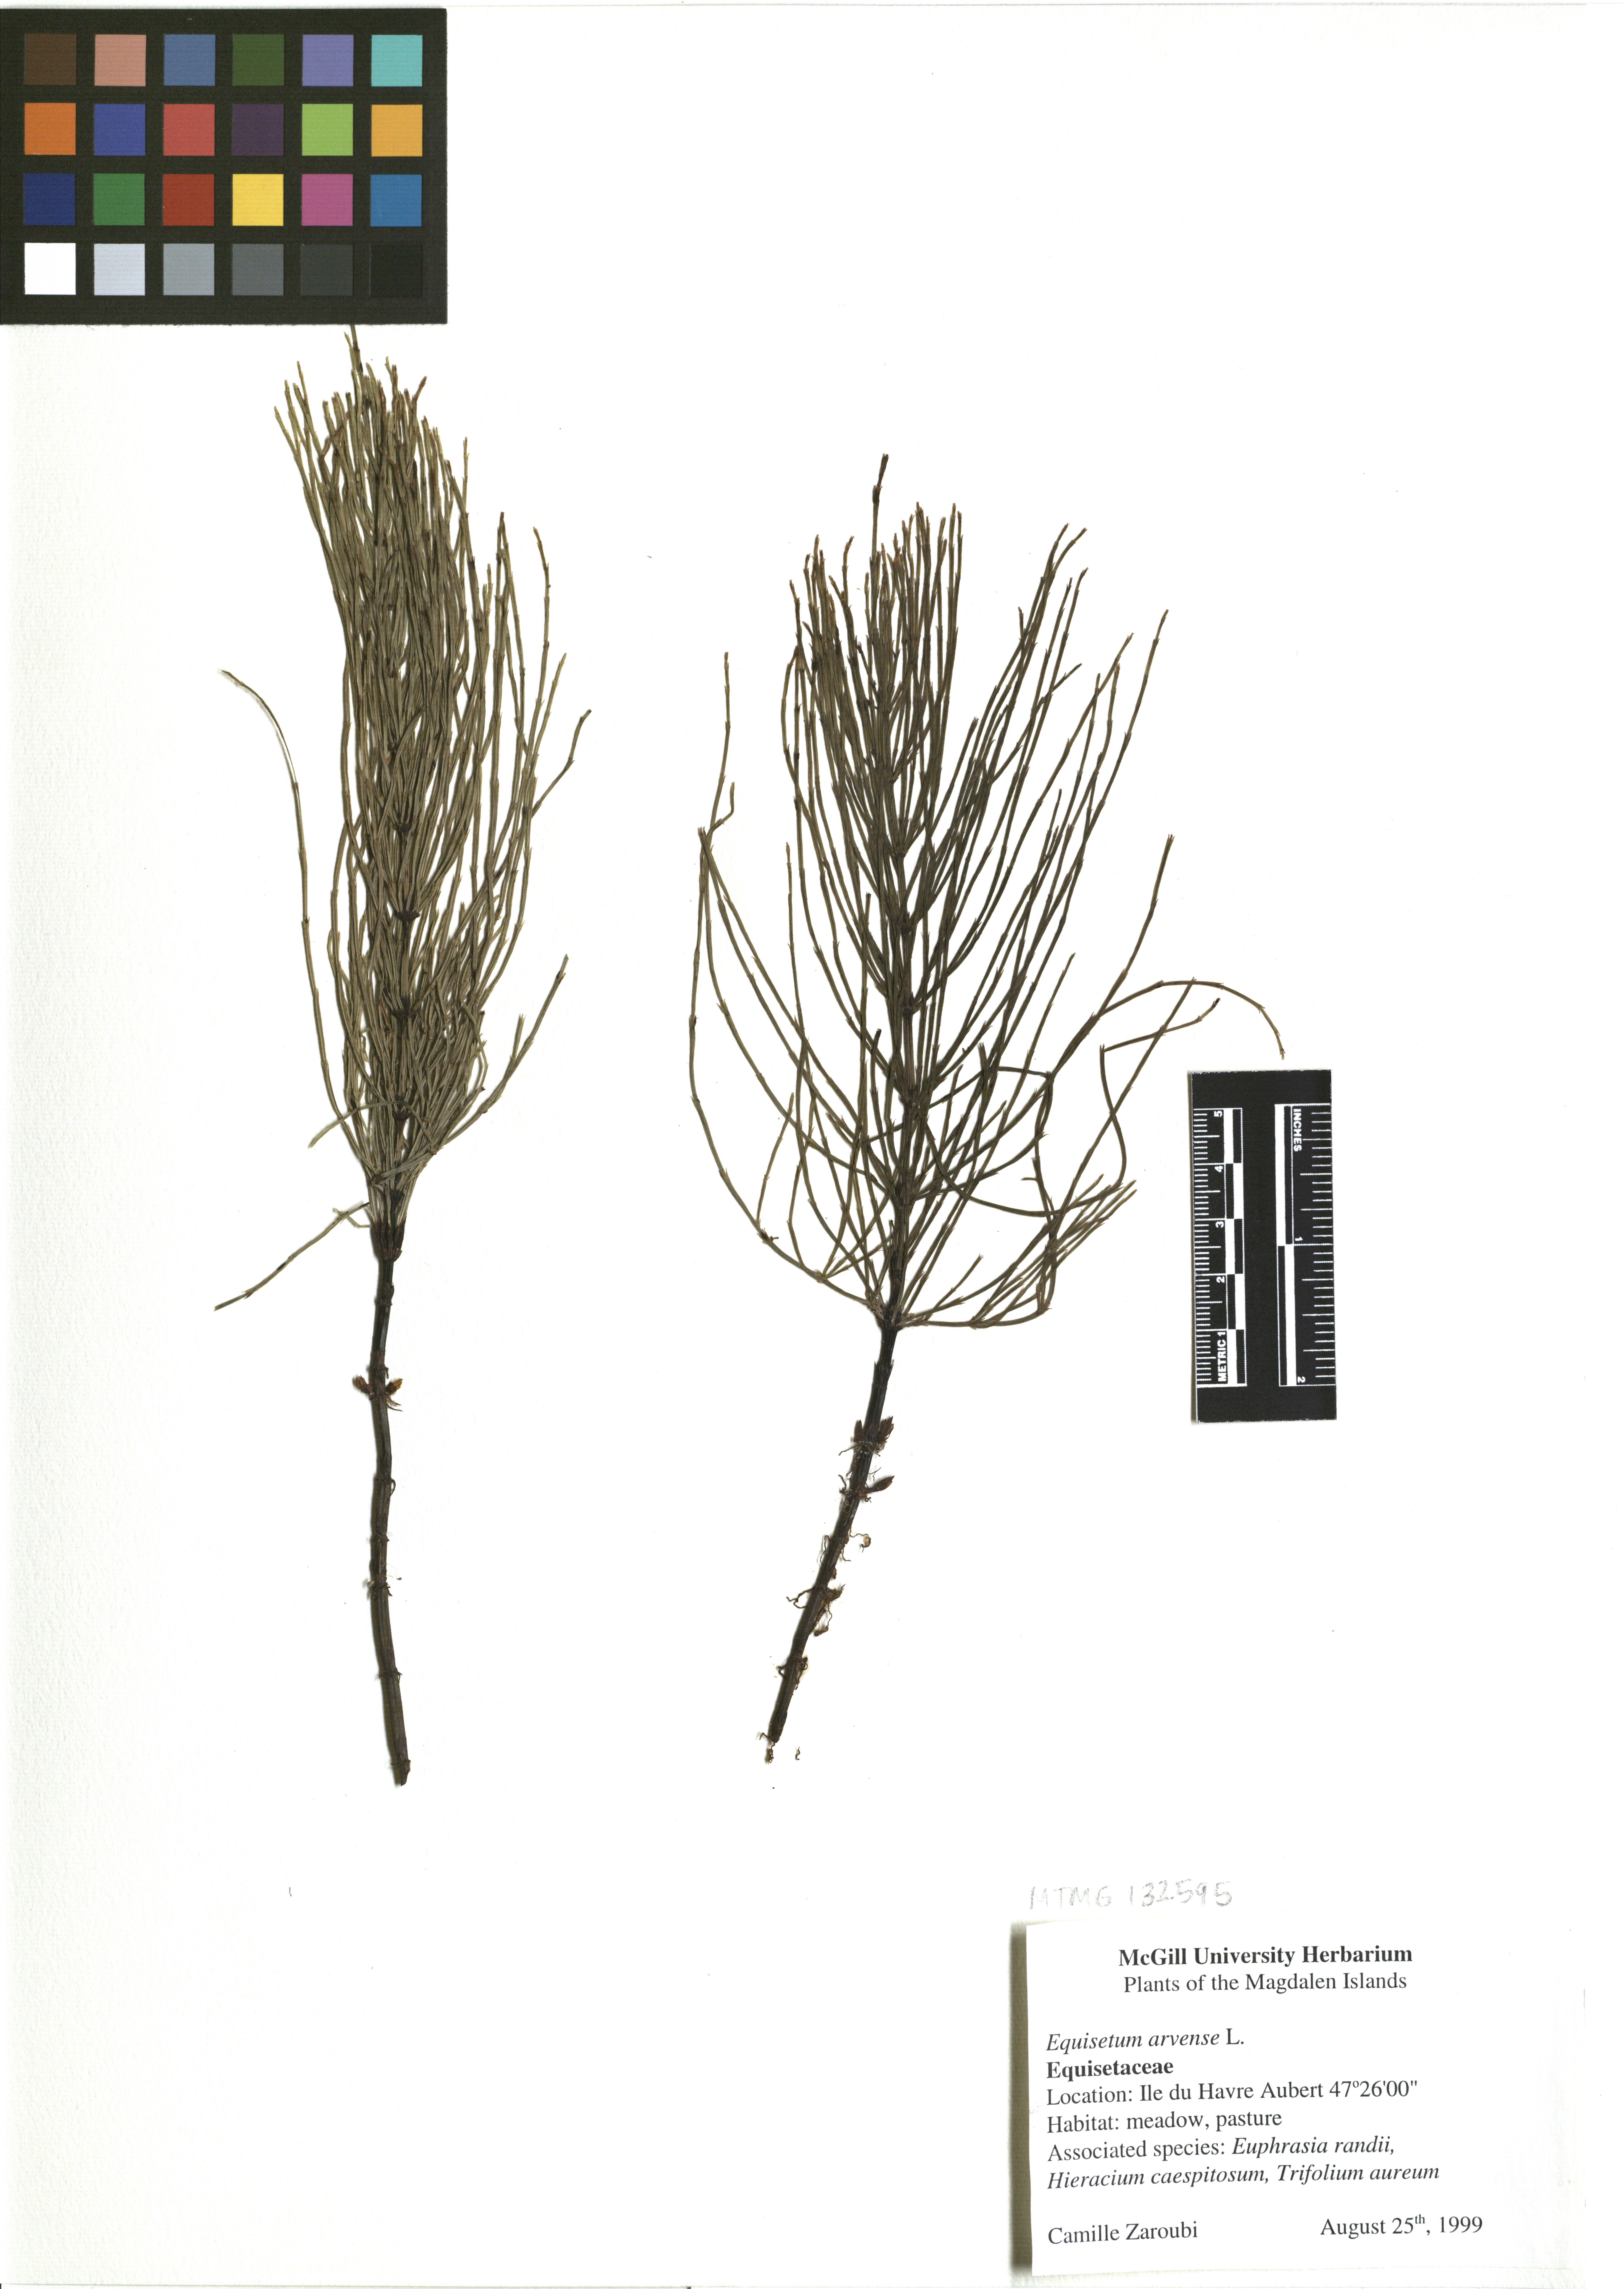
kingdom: Plantae
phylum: Tracheophyta
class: Polypodiopsida
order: Equisetales
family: Equisetaceae
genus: Equisetum
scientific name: Equisetum arvense
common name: Field horsetail
